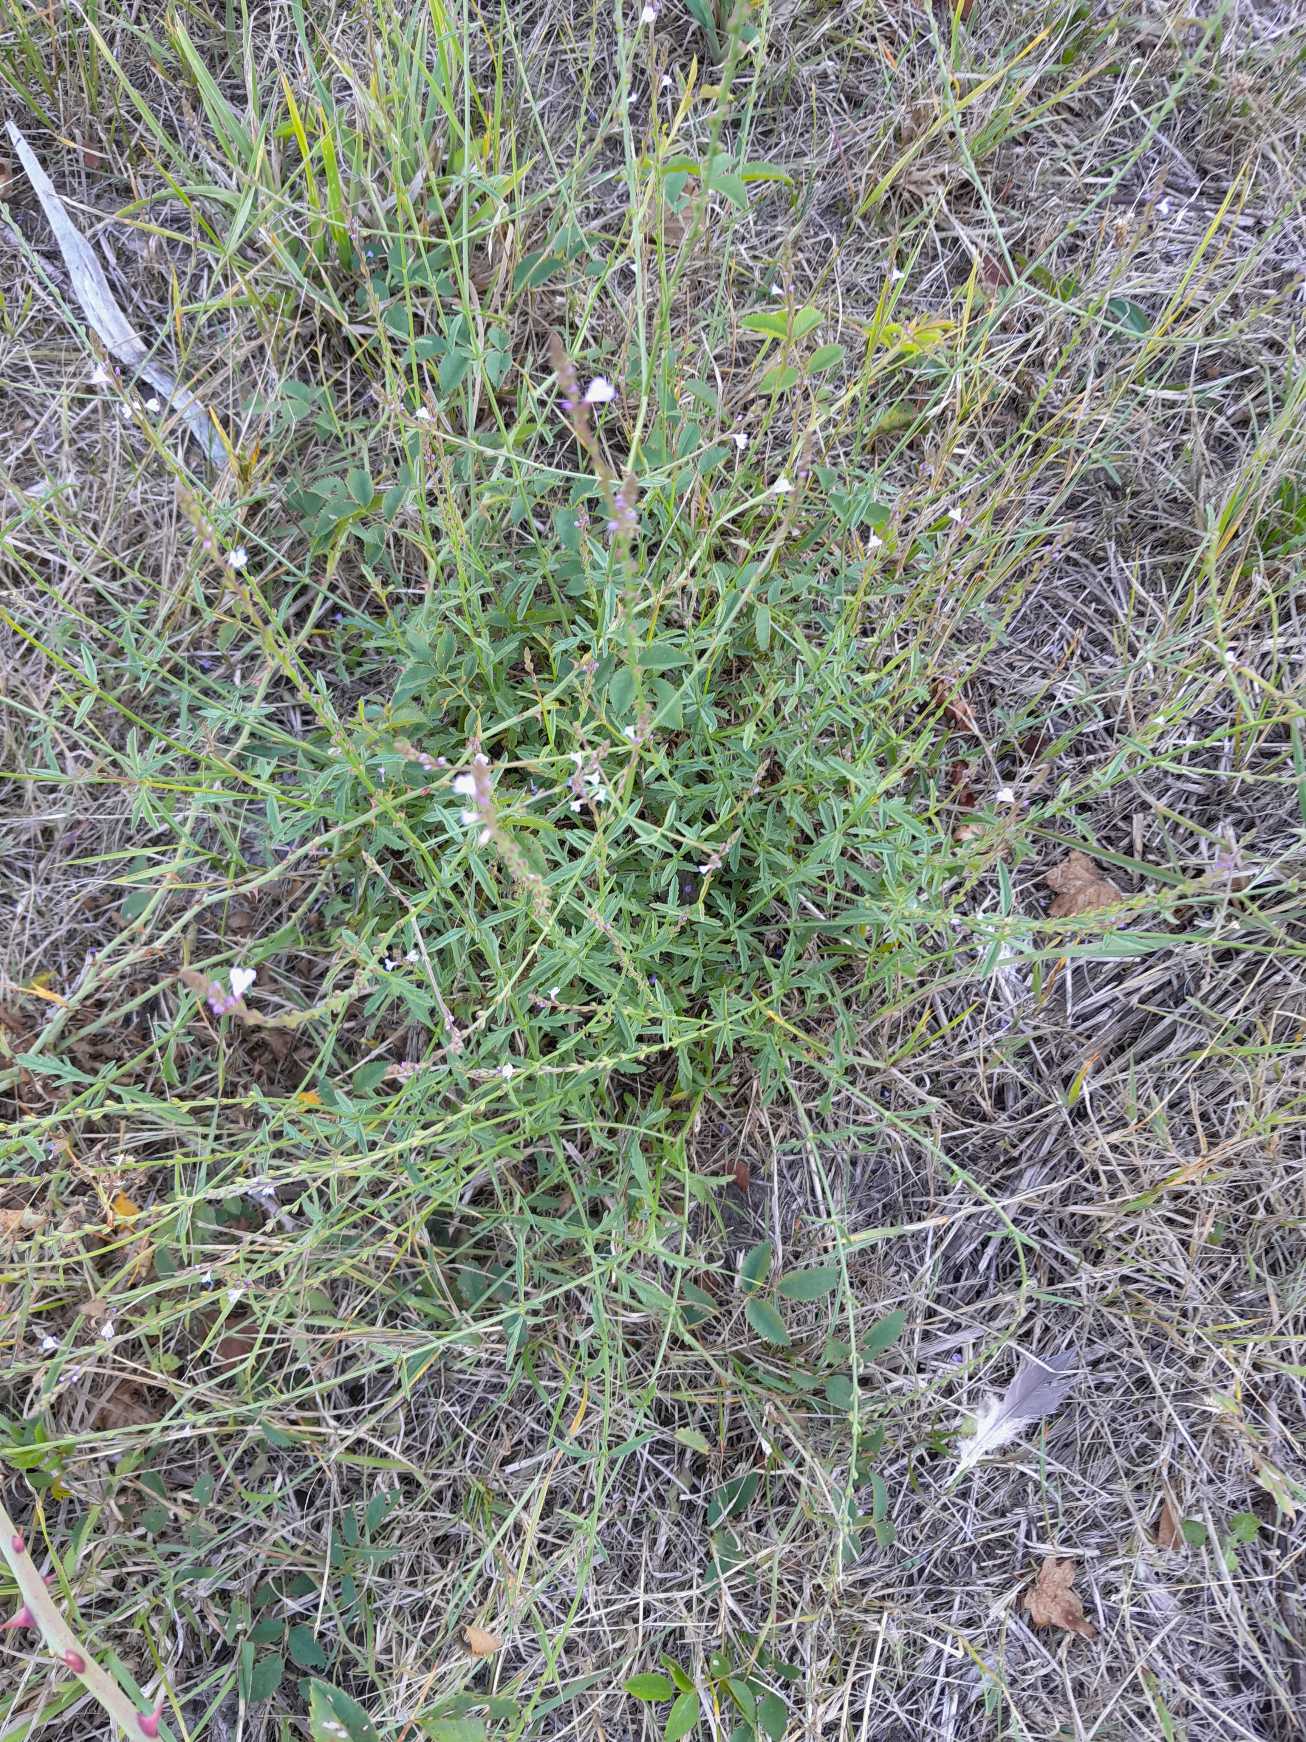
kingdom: Plantae
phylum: Tracheophyta
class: Magnoliopsida
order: Lamiales
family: Verbenaceae
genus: Verbena
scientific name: Verbena officinalis
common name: Læge-jernurt
